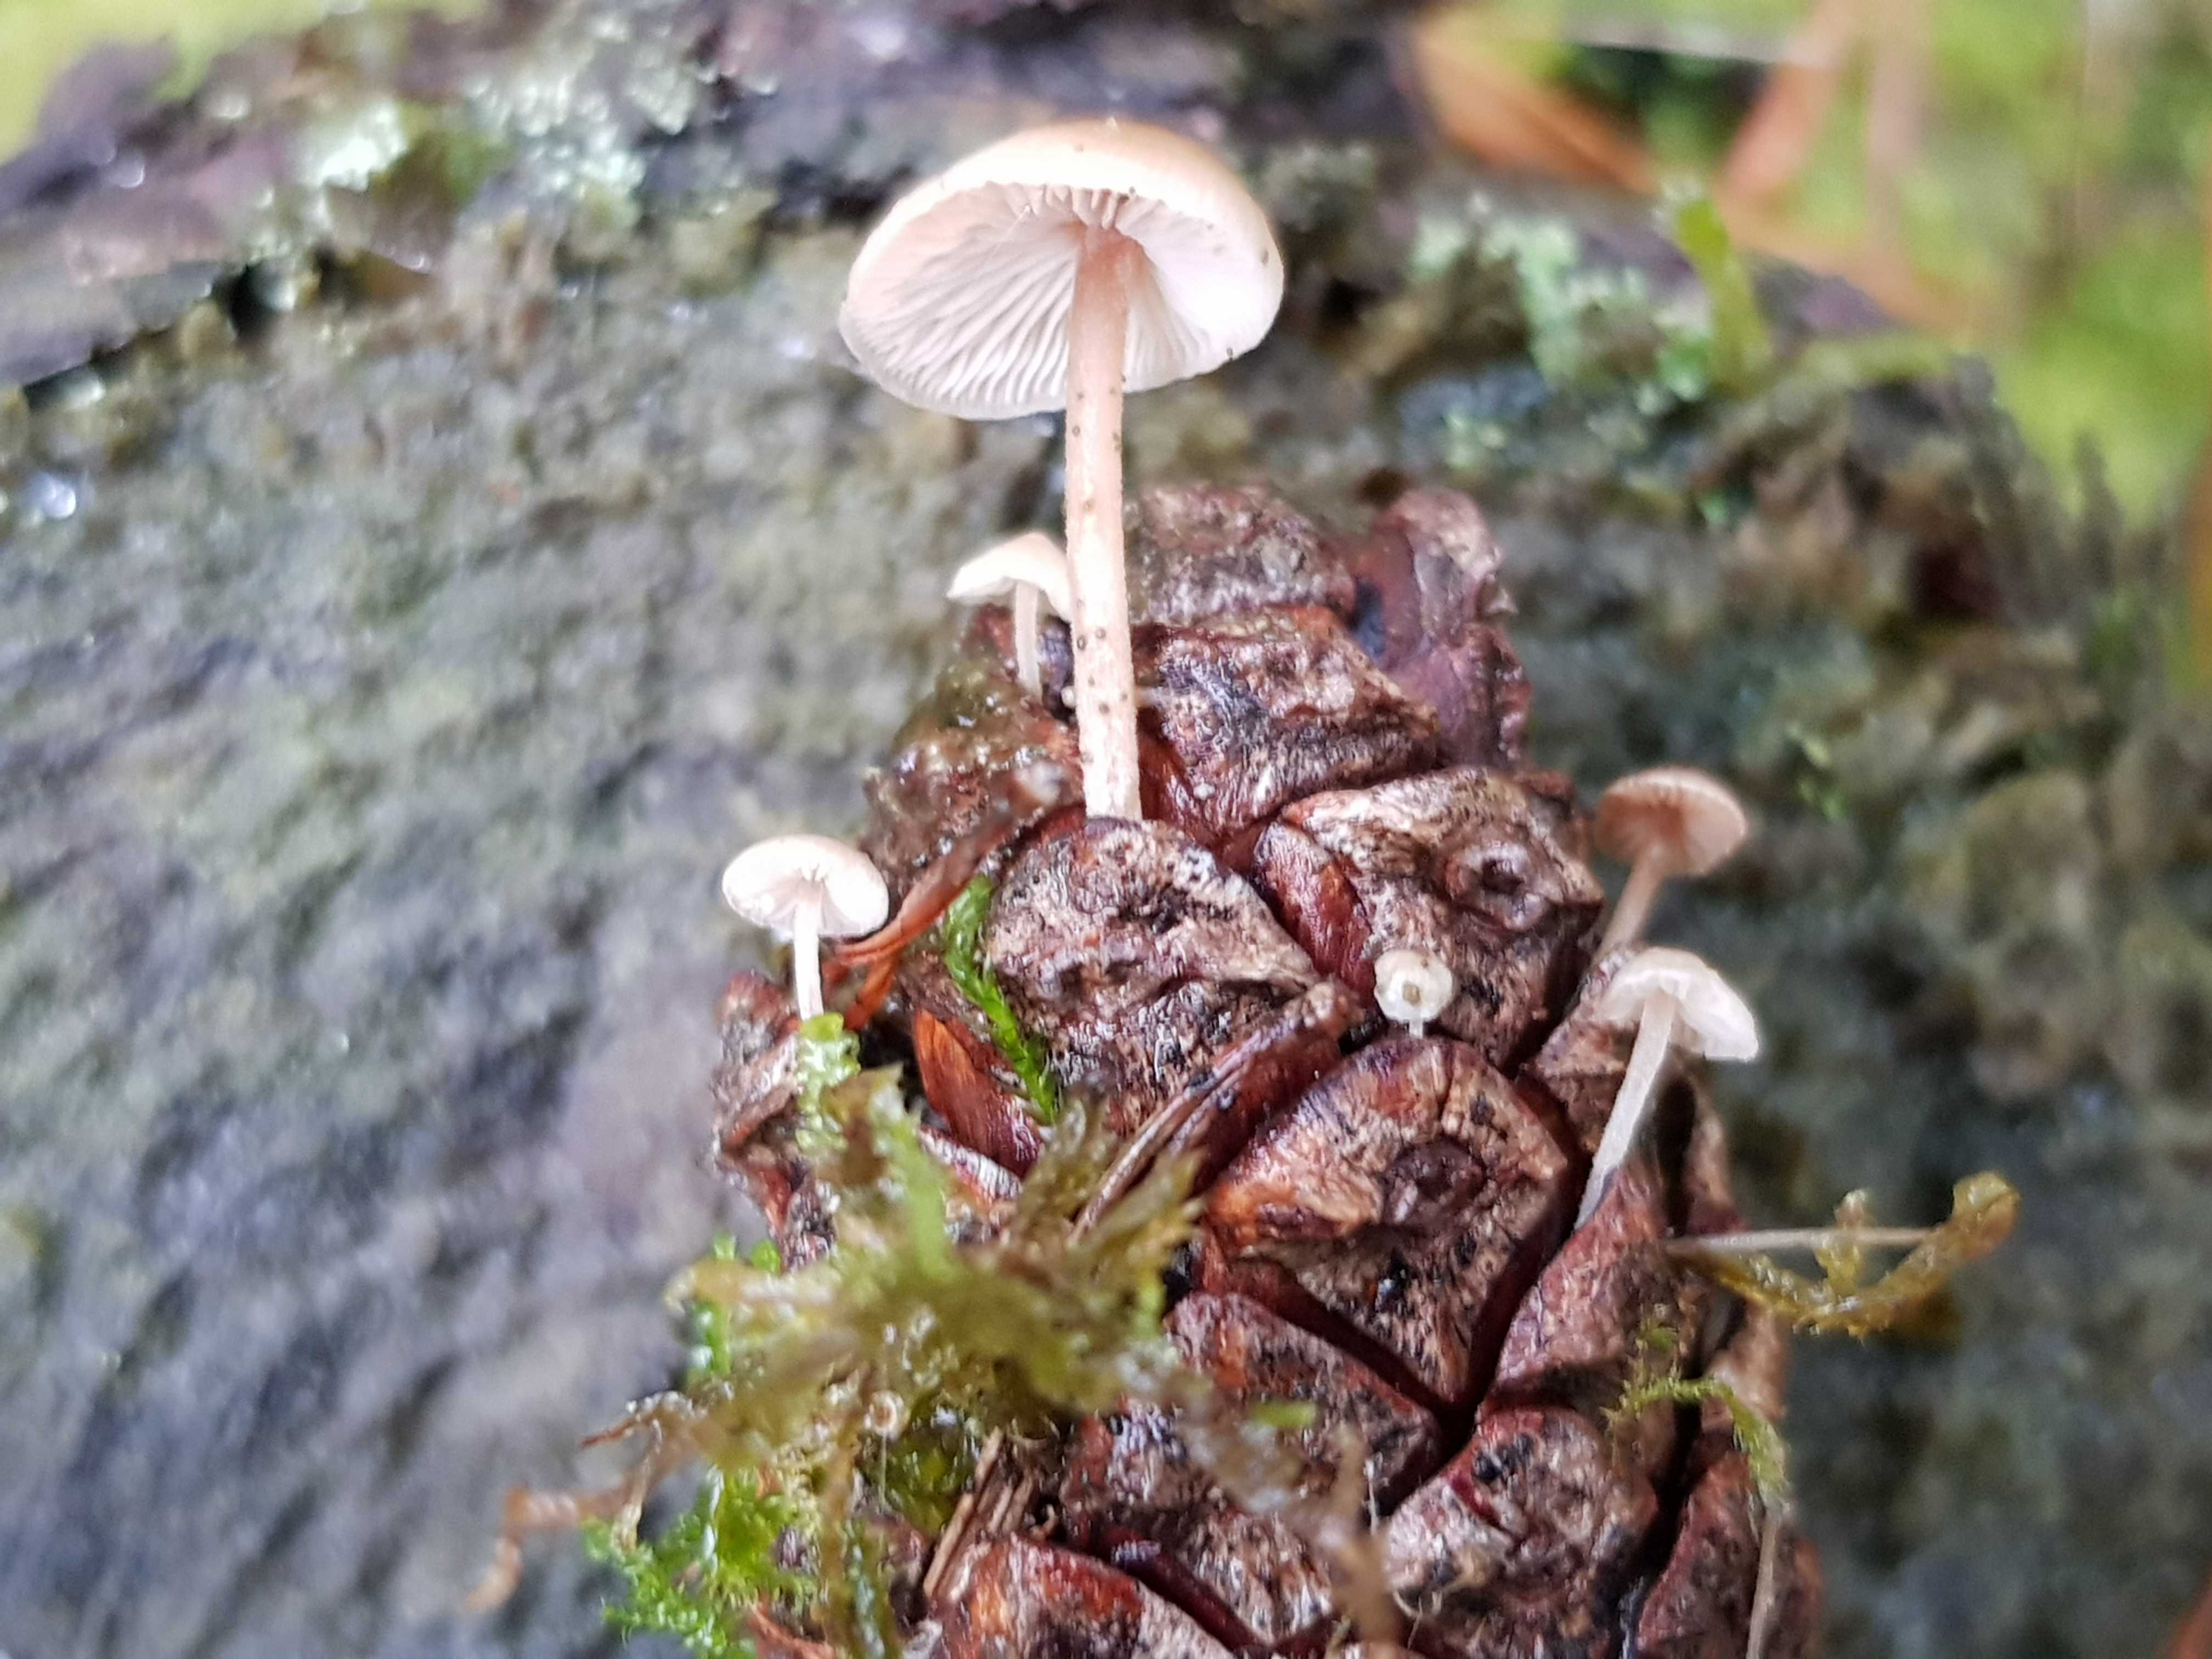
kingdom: Fungi
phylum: Basidiomycota
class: Agaricomycetes
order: Agaricales
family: Marasmiaceae
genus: Baeospora
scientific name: Baeospora myosura
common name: koglebruskhat
